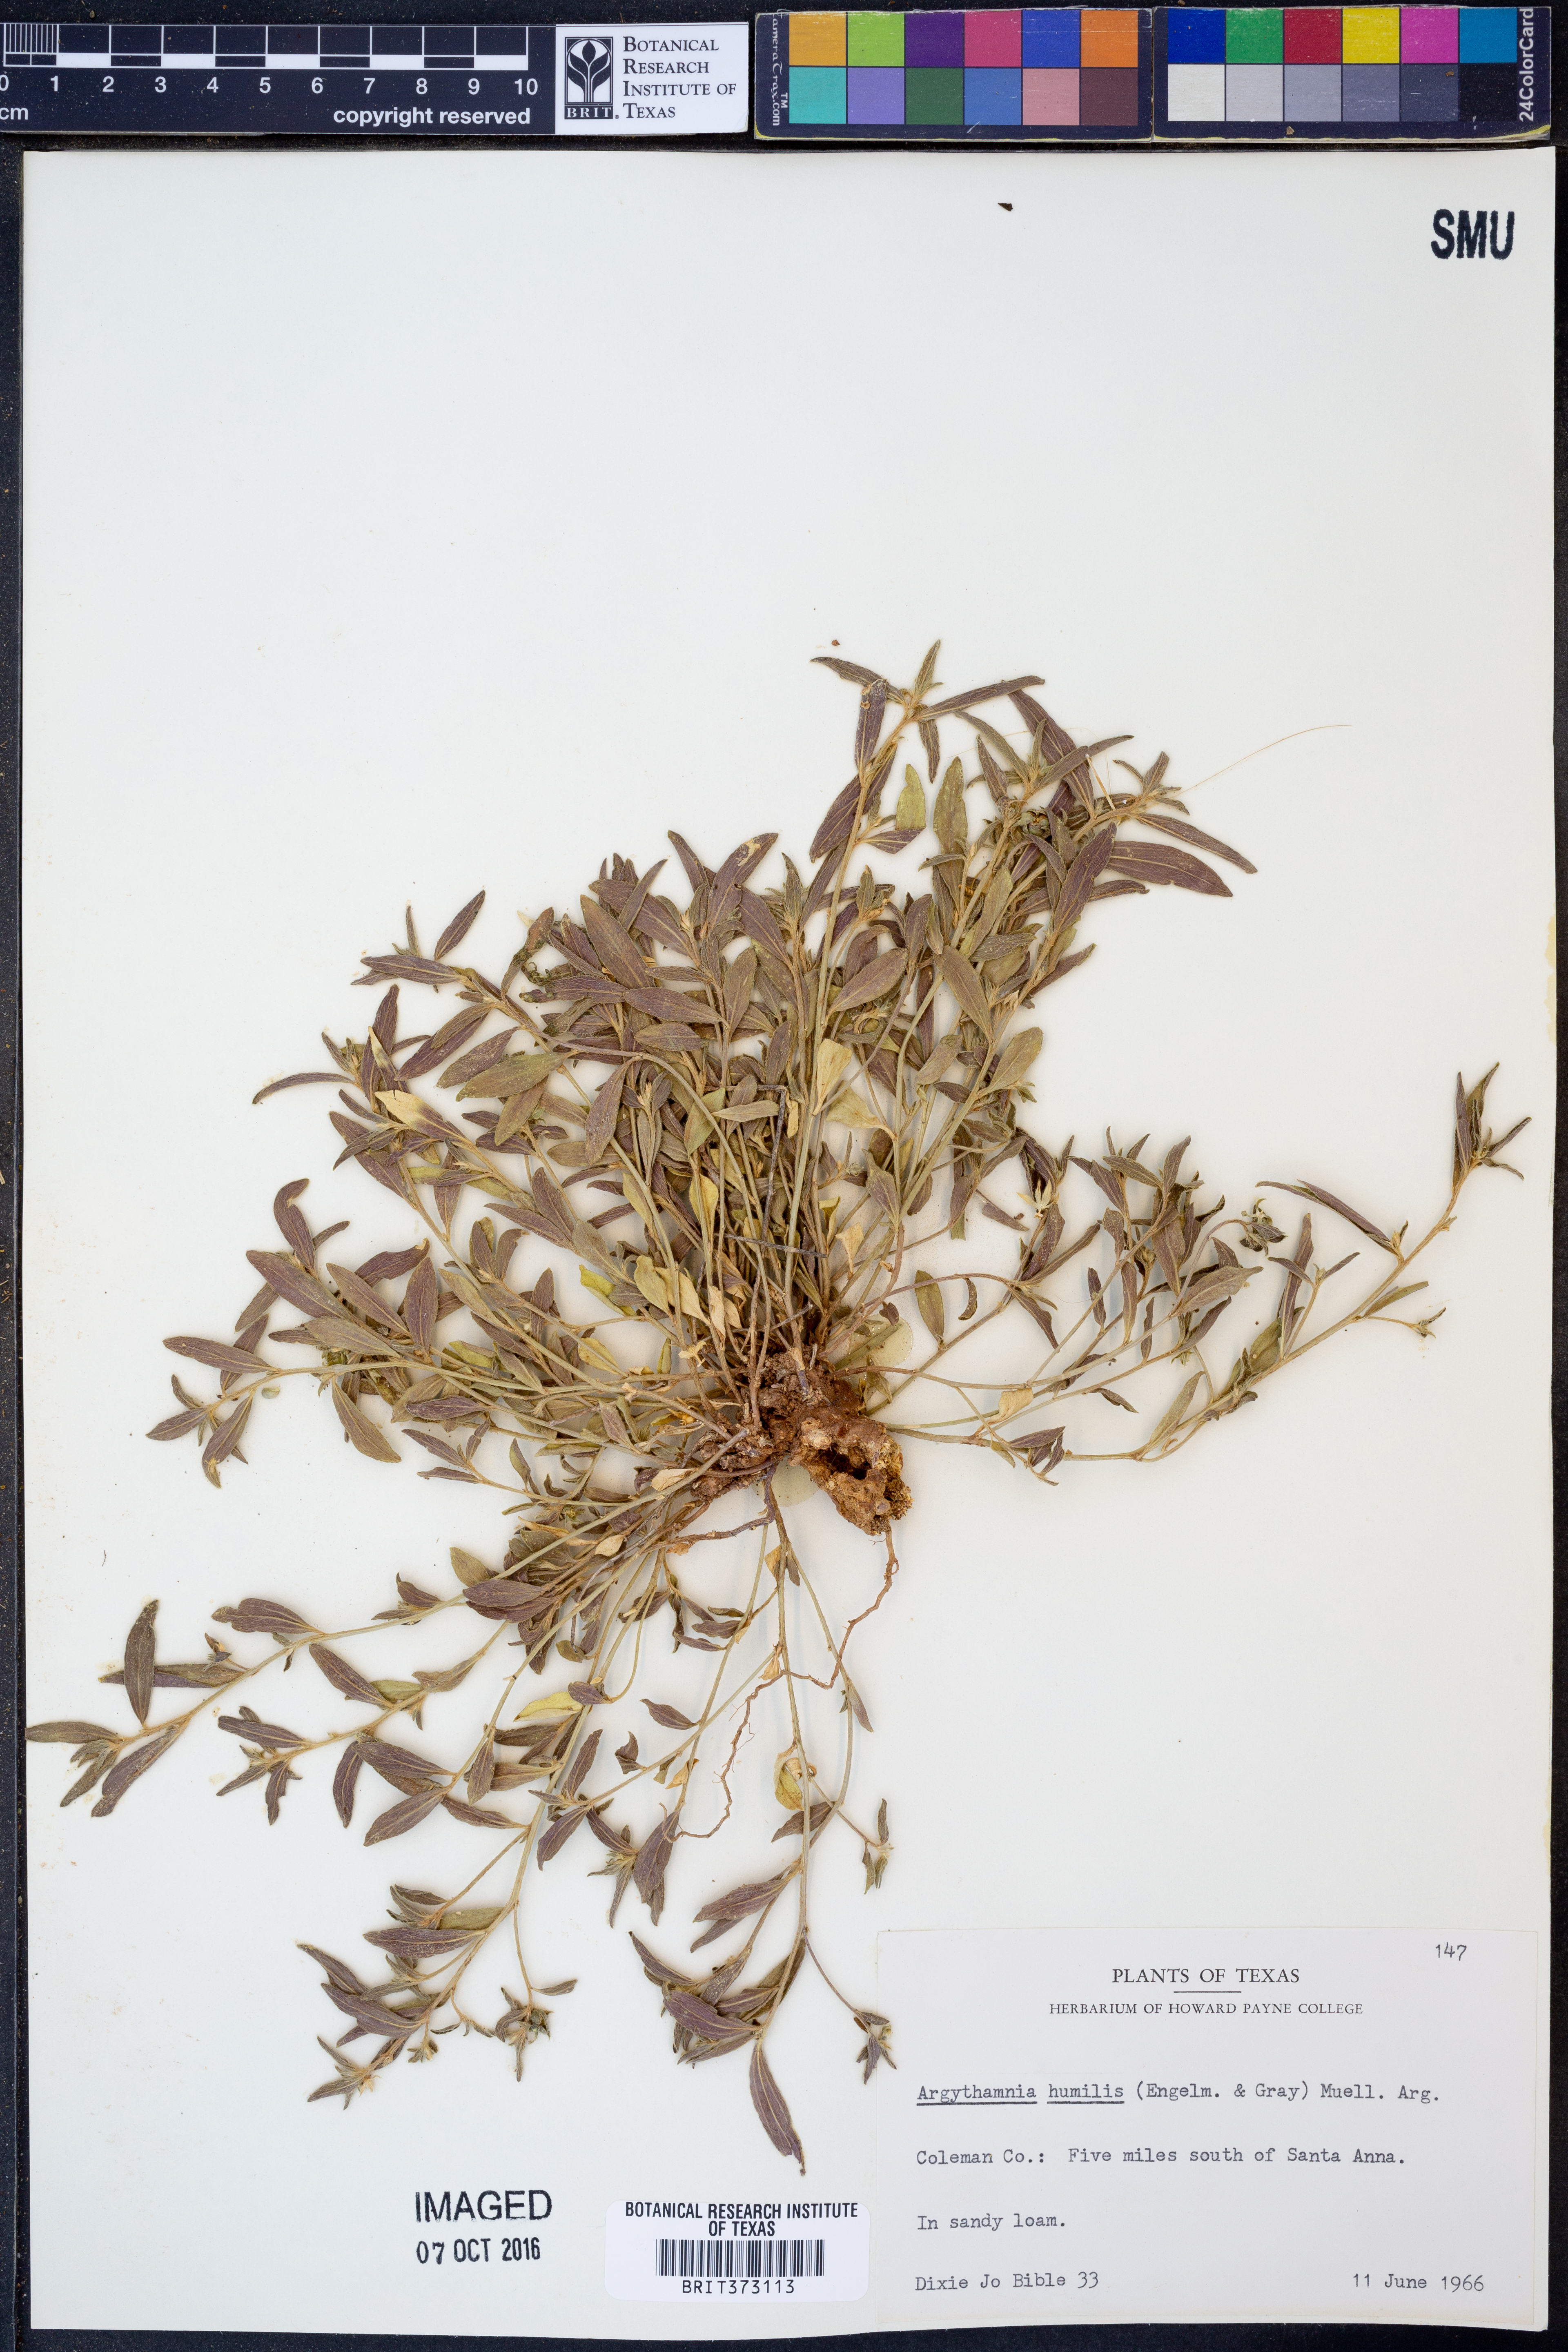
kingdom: Plantae
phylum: Tracheophyta
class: Magnoliopsida
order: Malpighiales
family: Euphorbiaceae
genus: Ditaxis
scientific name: Ditaxis humilis
